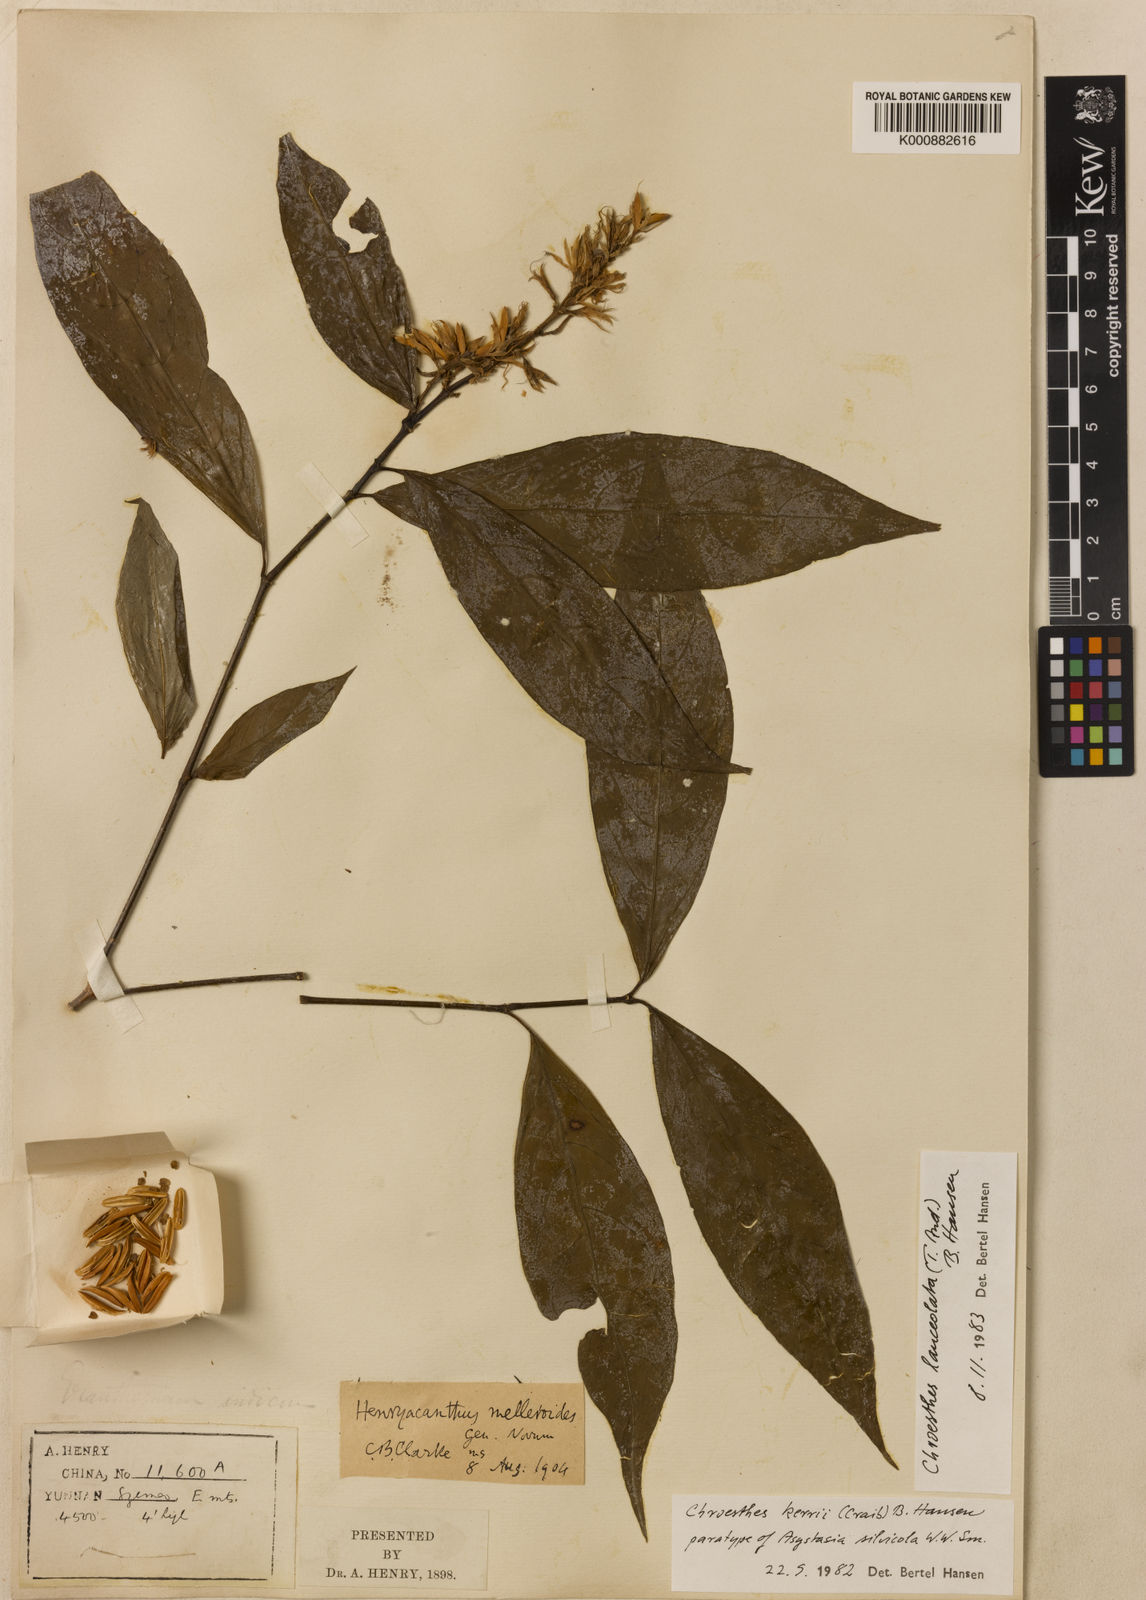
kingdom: Plantae
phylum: Tracheophyta
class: Magnoliopsida
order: Lamiales
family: Acanthaceae
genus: Chroesthes
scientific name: Chroesthes lanceolata
